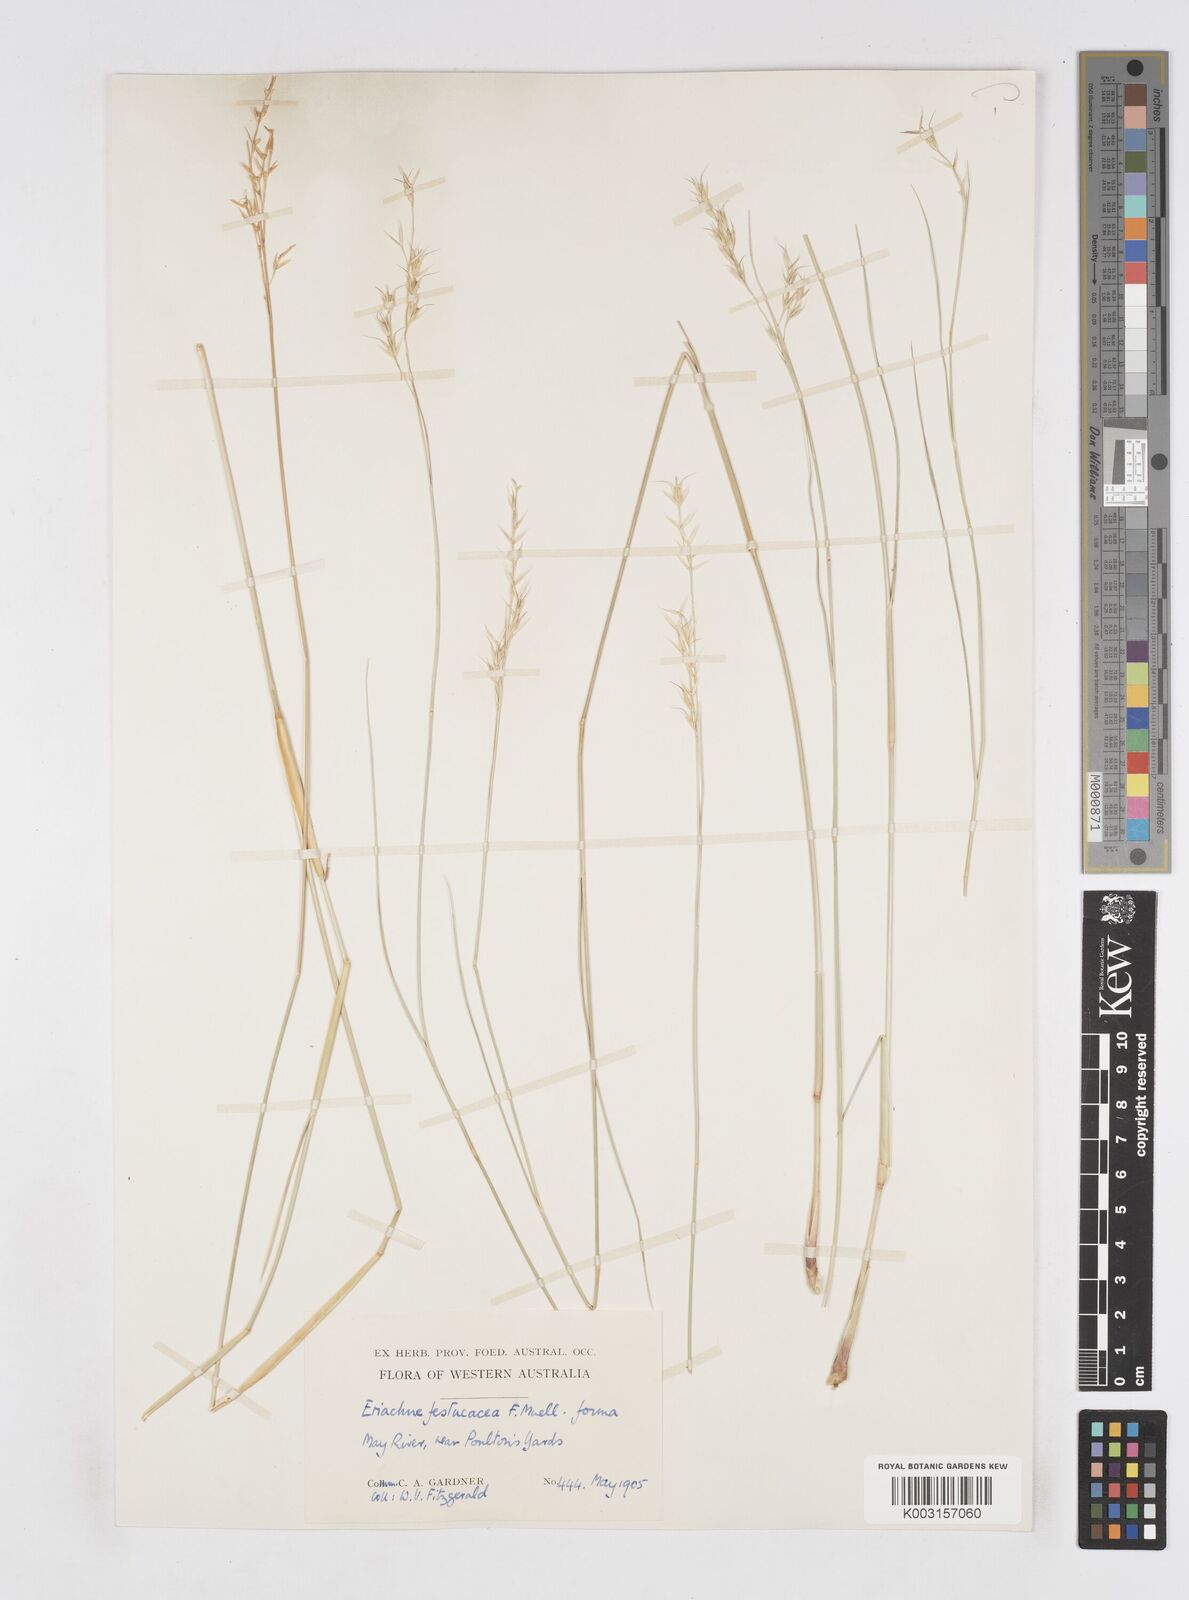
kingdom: Plantae
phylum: Tracheophyta
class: Liliopsida
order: Poales
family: Poaceae
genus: Eriachne
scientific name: Eriachne festucacea
